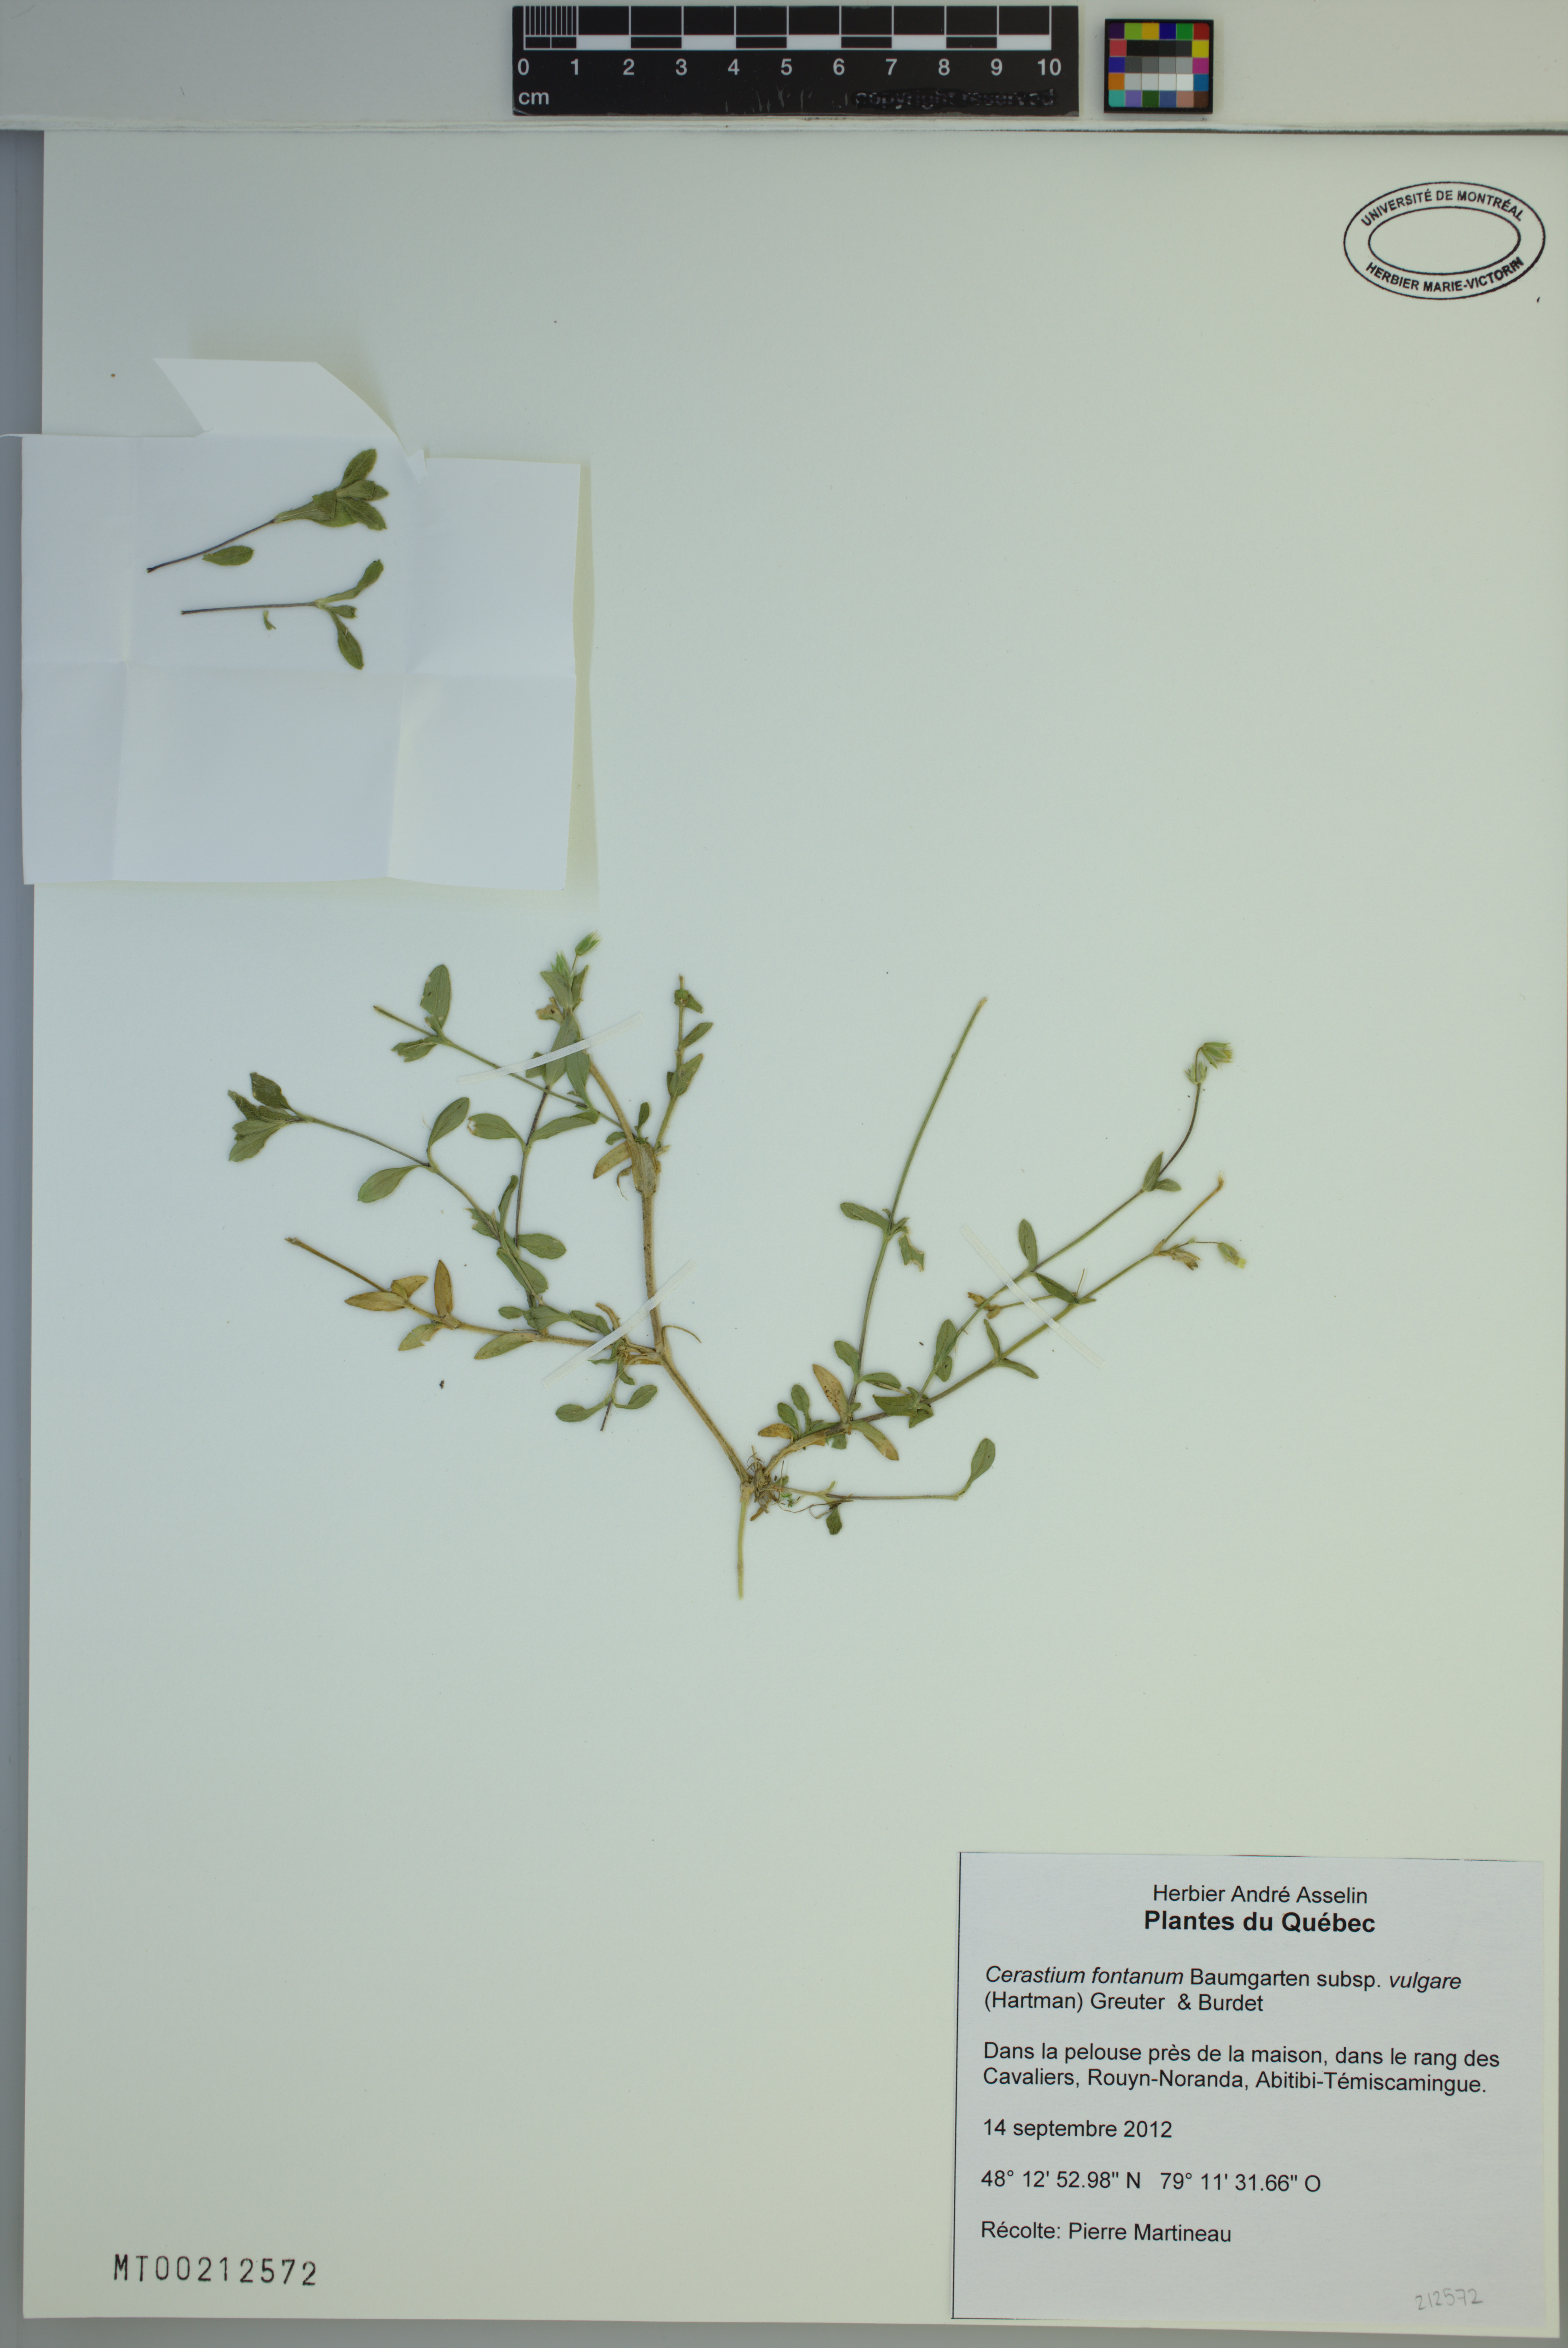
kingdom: Plantae
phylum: Tracheophyta
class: Magnoliopsida
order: Caryophyllales
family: Caryophyllaceae
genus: Cerastium
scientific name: Cerastium holosteoides
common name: Big chickweed
